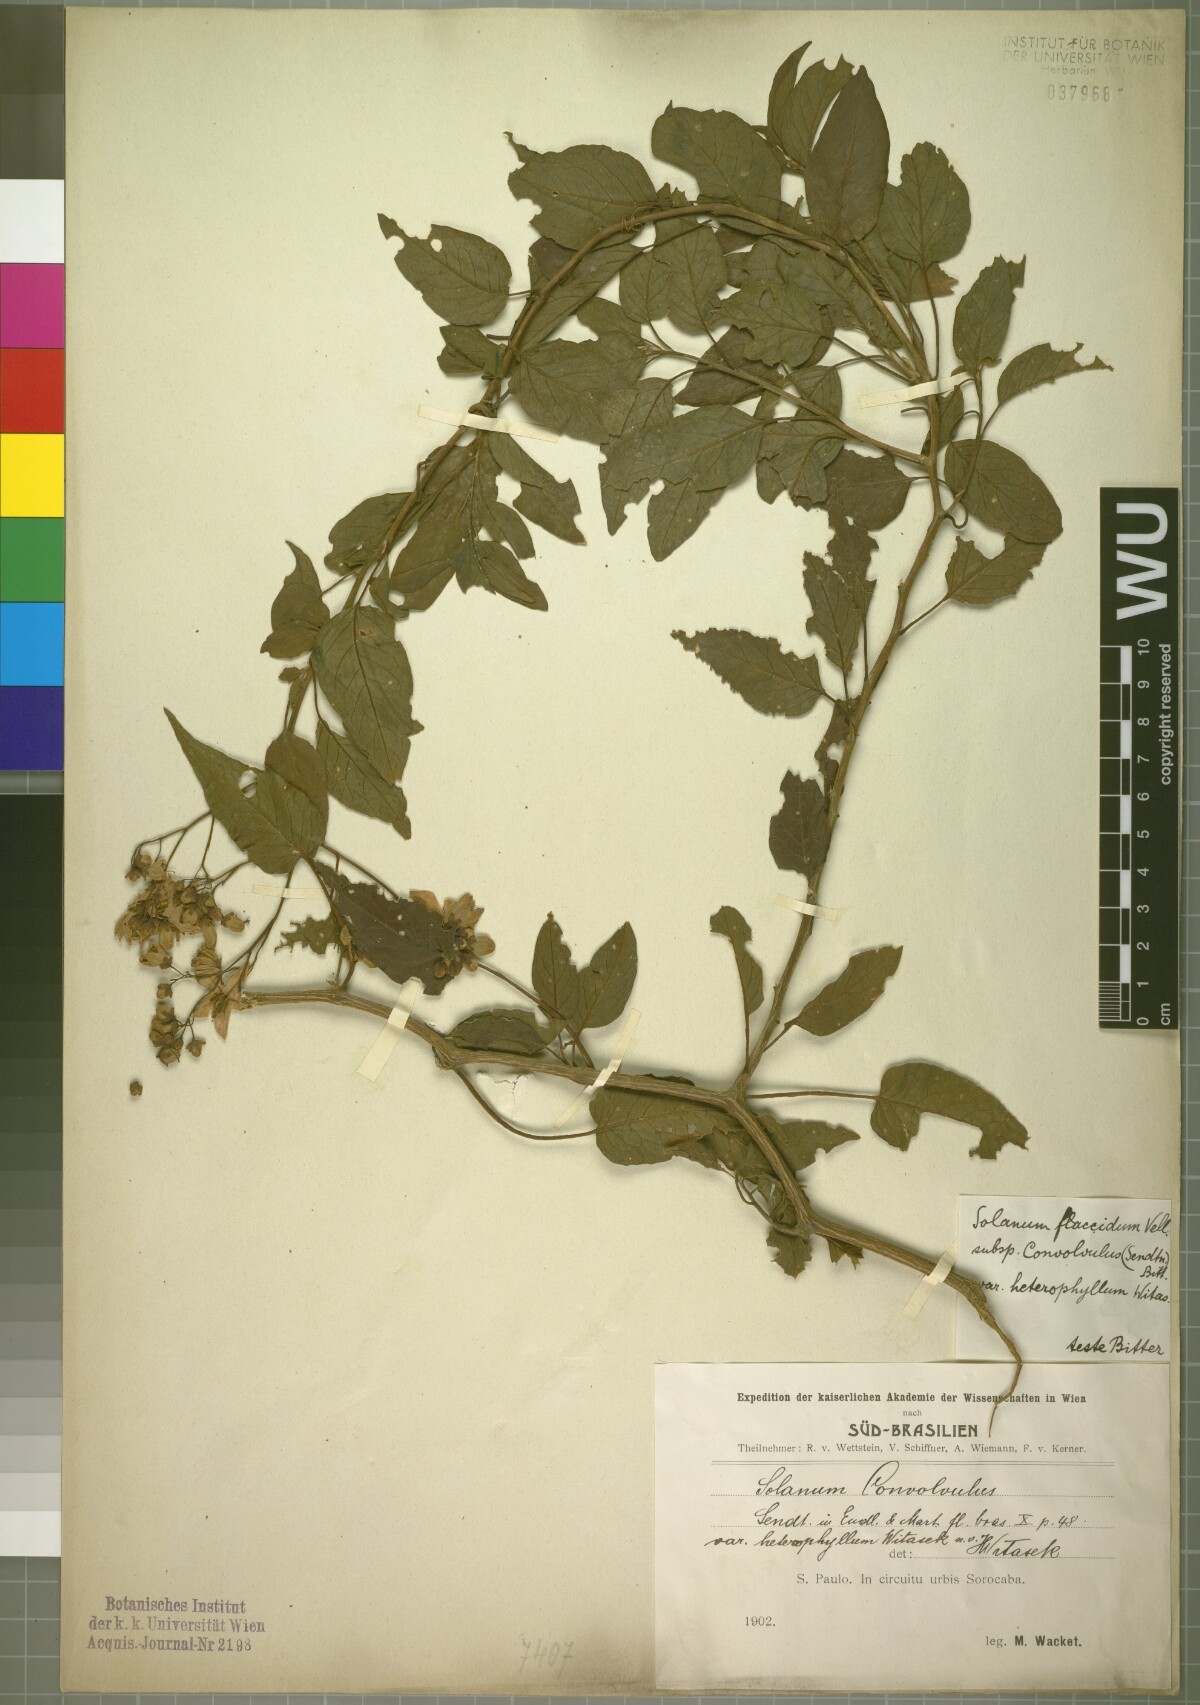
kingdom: Plantae
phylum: Tracheophyta
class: Magnoliopsida
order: Solanales
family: Solanaceae
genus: Solanum
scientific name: Solanum flaccidum
